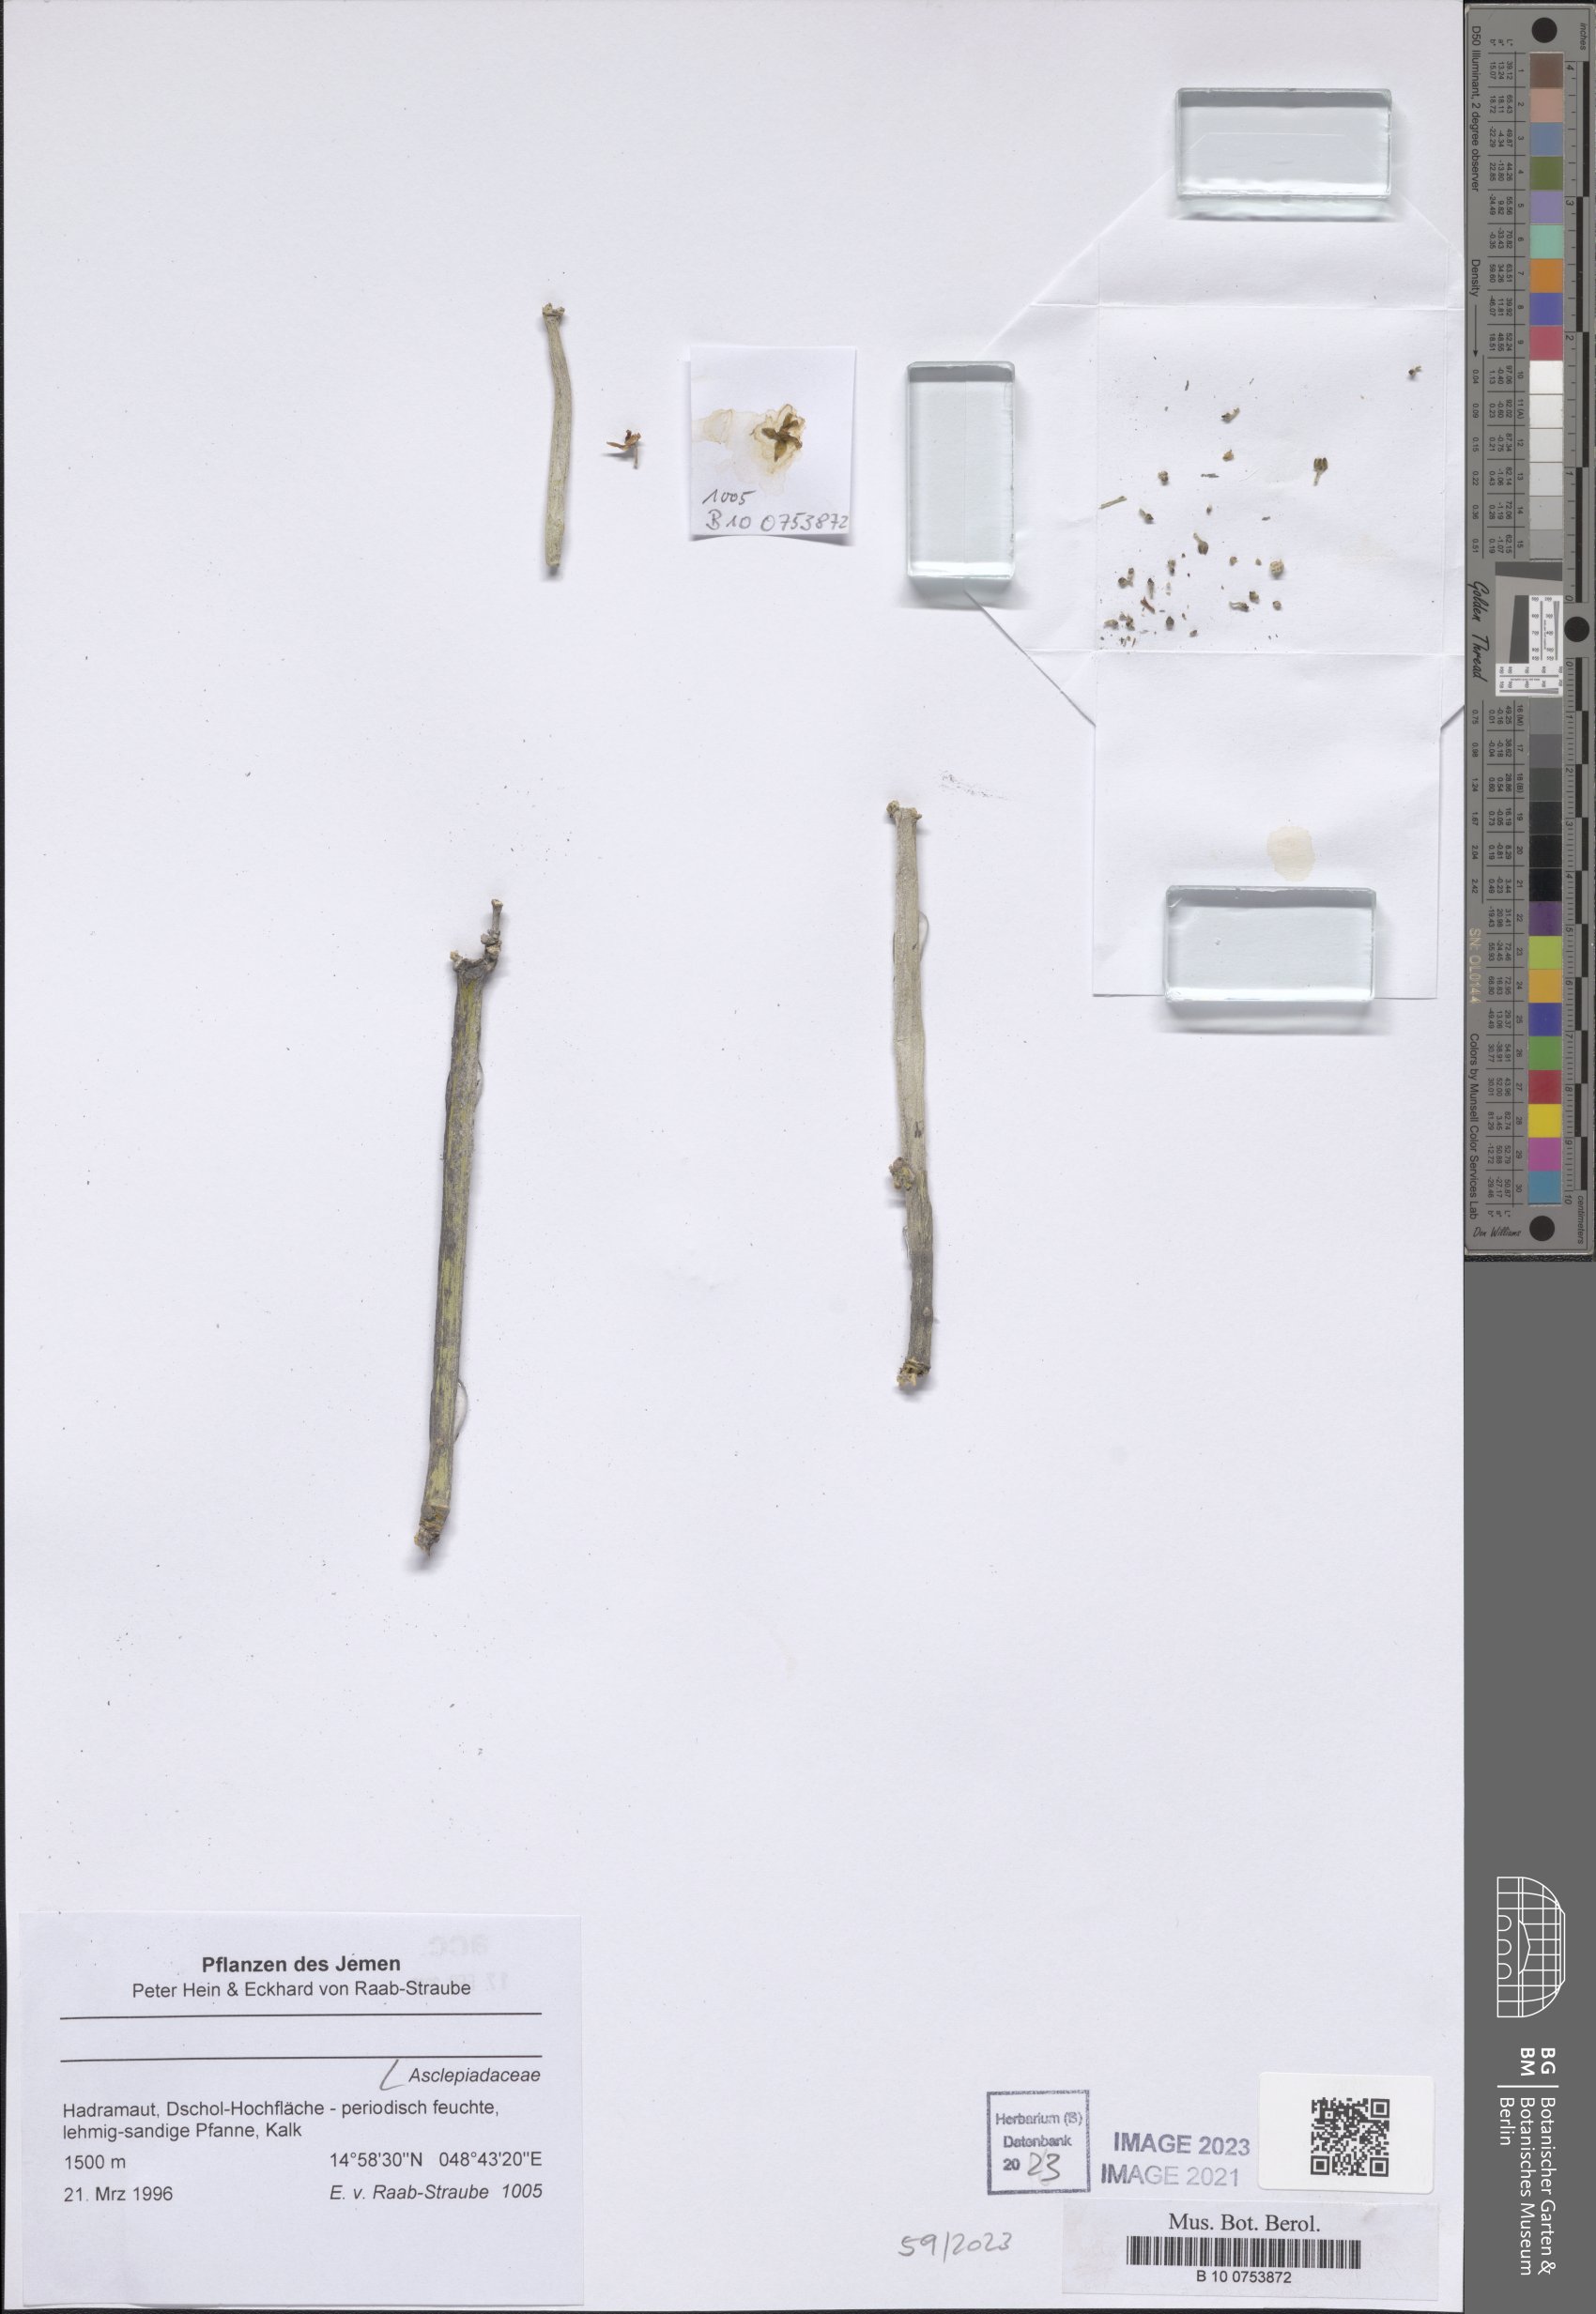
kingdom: Plantae
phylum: Tracheophyta
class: Magnoliopsida
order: Gentianales
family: Asclepiadaceae
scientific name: Asclepiadaceae
